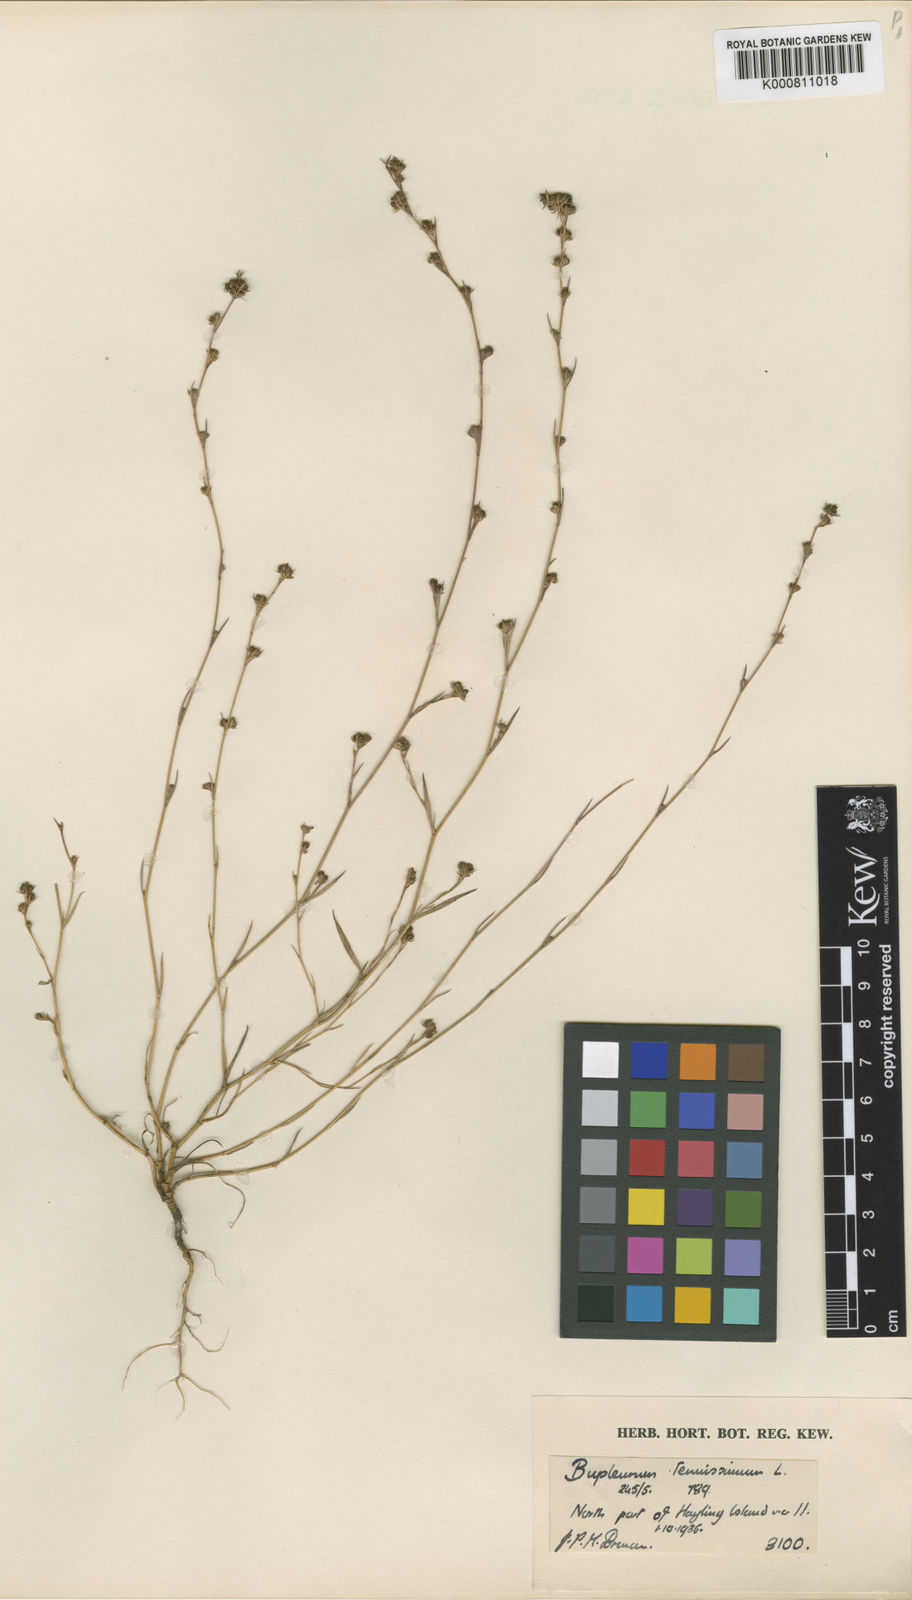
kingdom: Plantae
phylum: Tracheophyta
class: Magnoliopsida
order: Apiales
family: Apiaceae
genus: Bupleurum
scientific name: Bupleurum tenuissimum
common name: Slender hare's-ear
